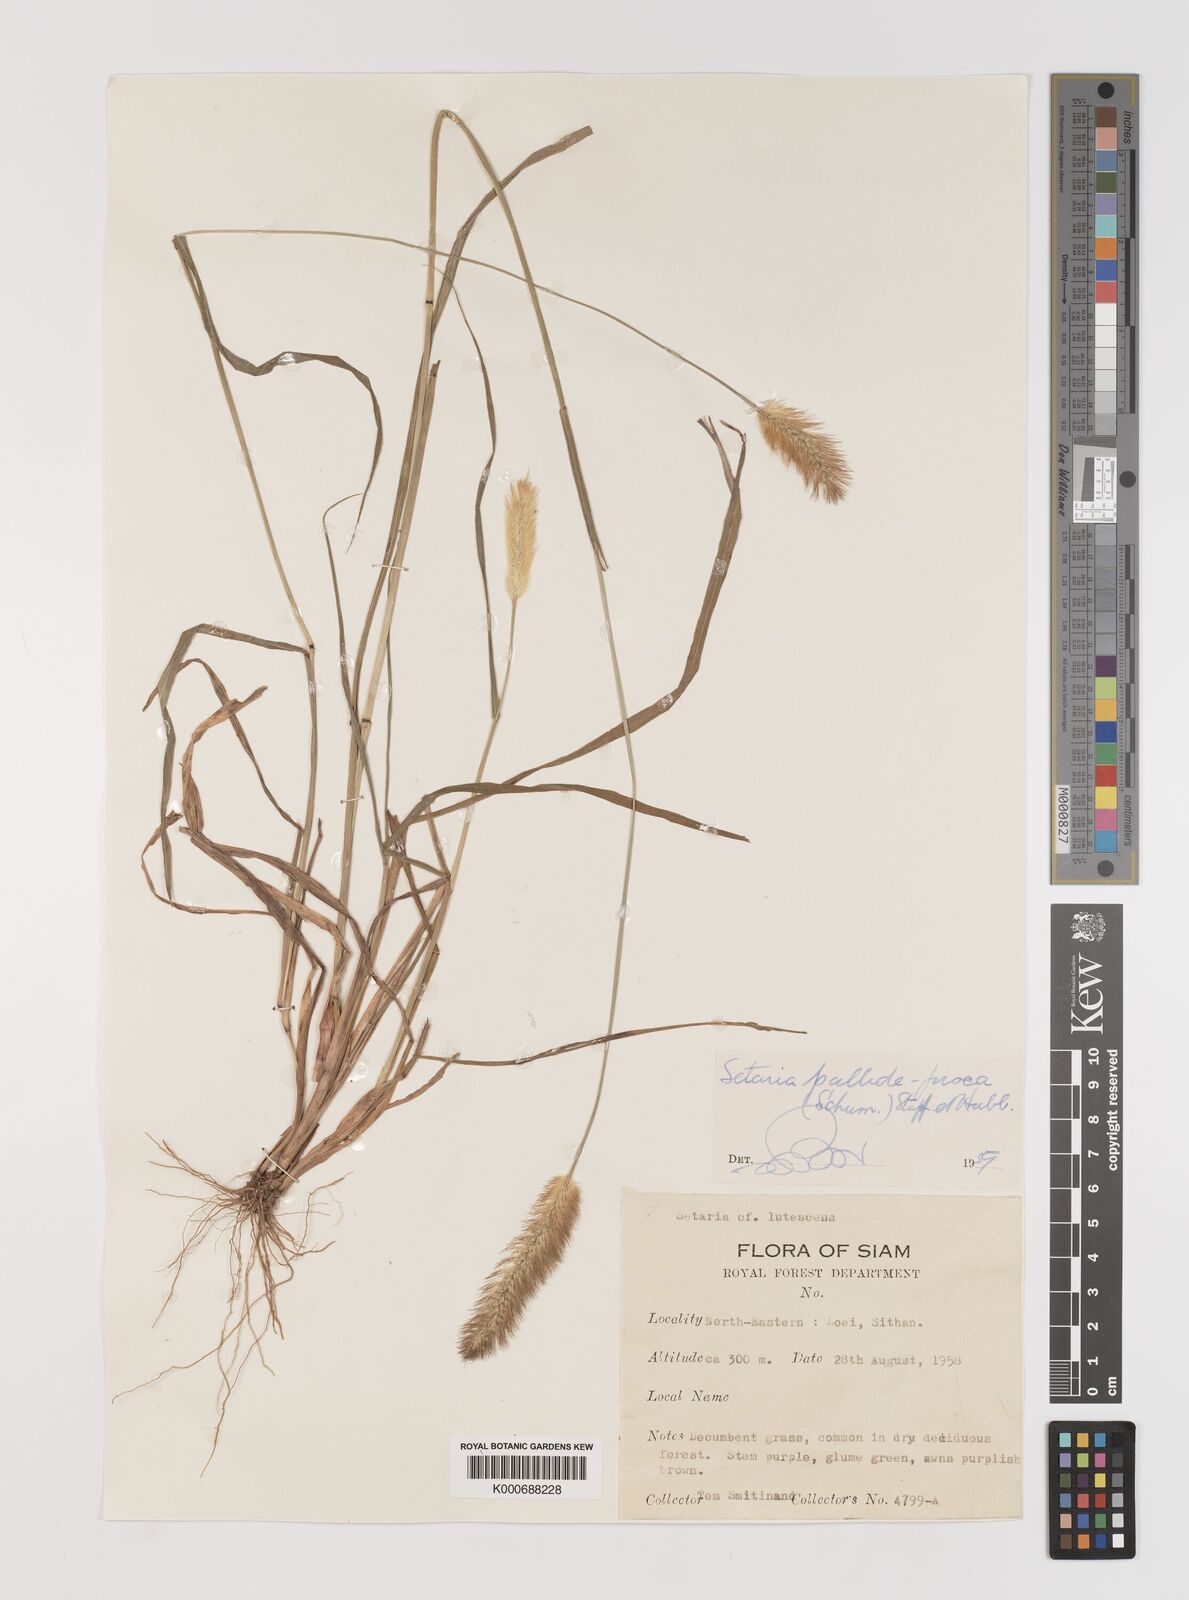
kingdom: Plantae
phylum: Tracheophyta
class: Liliopsida
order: Poales
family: Poaceae
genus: Setaria
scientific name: Setaria pumila
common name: Yellow bristle-grass
